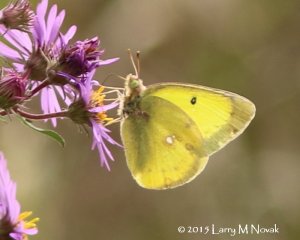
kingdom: Animalia
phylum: Arthropoda
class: Insecta
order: Lepidoptera
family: Pieridae
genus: Colias
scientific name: Colias philodice
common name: Clouded Sulphur
